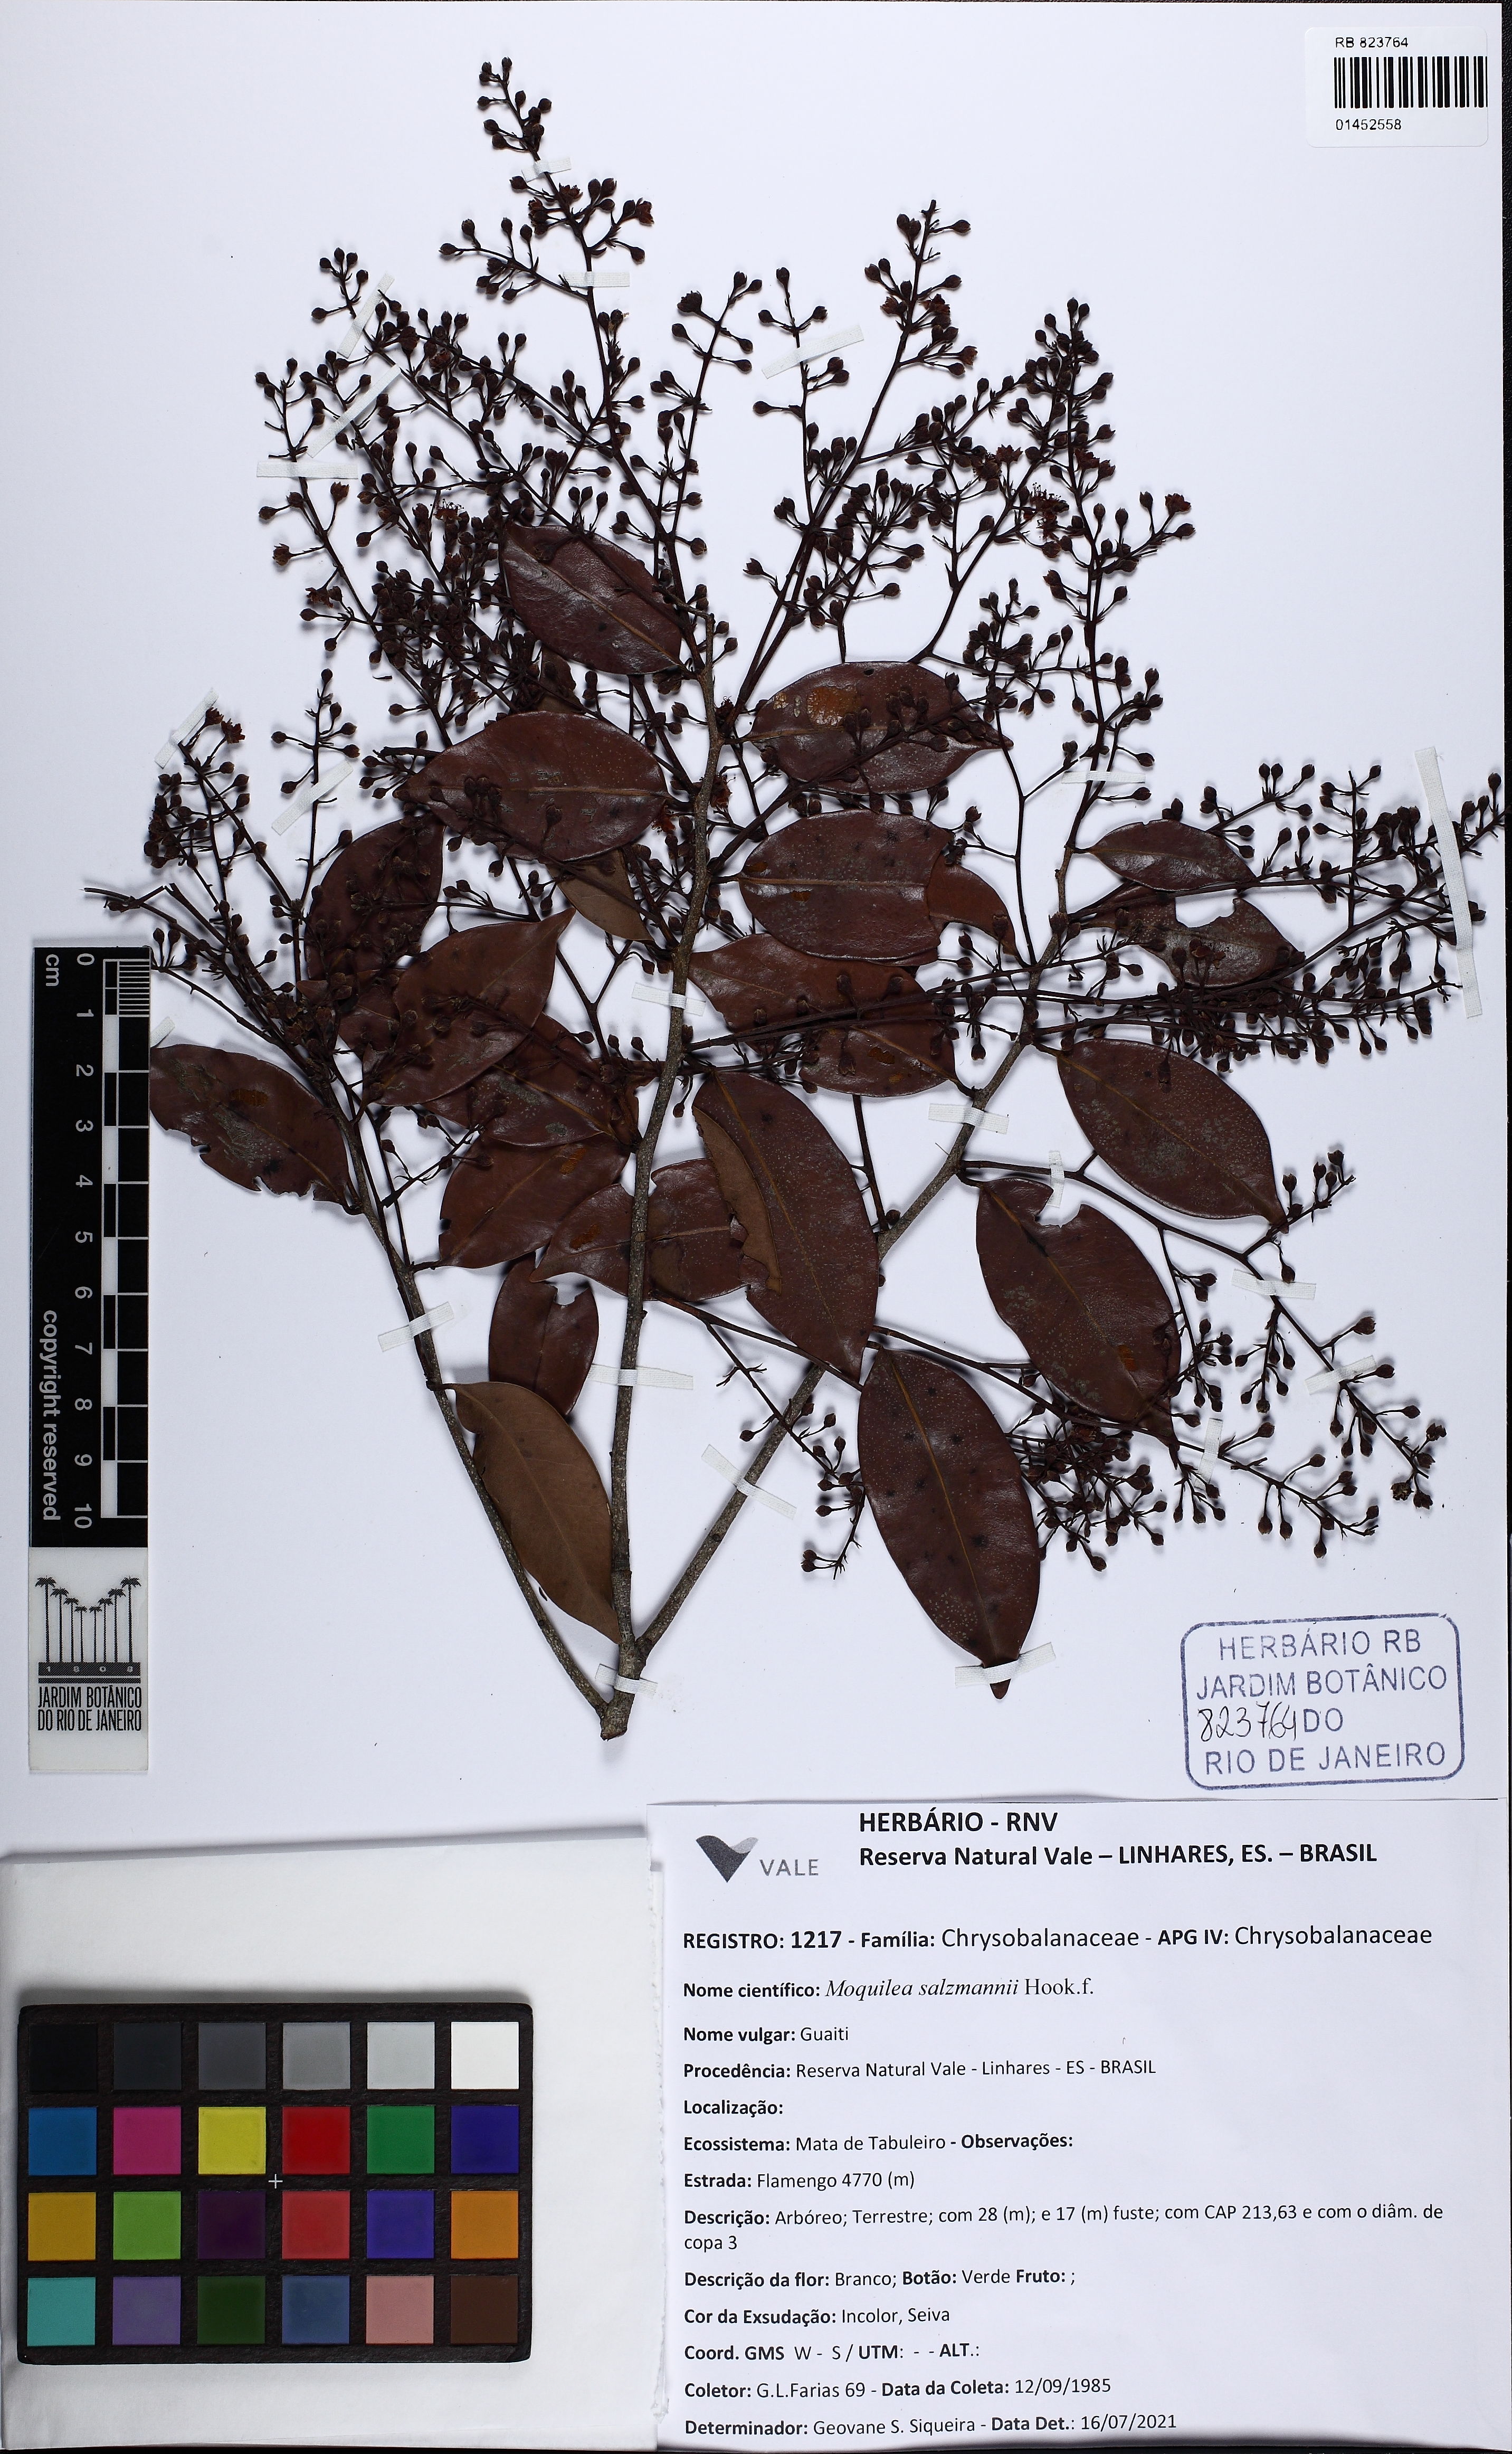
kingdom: Plantae
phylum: Tracheophyta
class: Magnoliopsida
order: Malpighiales
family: Chrysobalanaceae
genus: Moquilea
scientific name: Moquilea salzmannii
